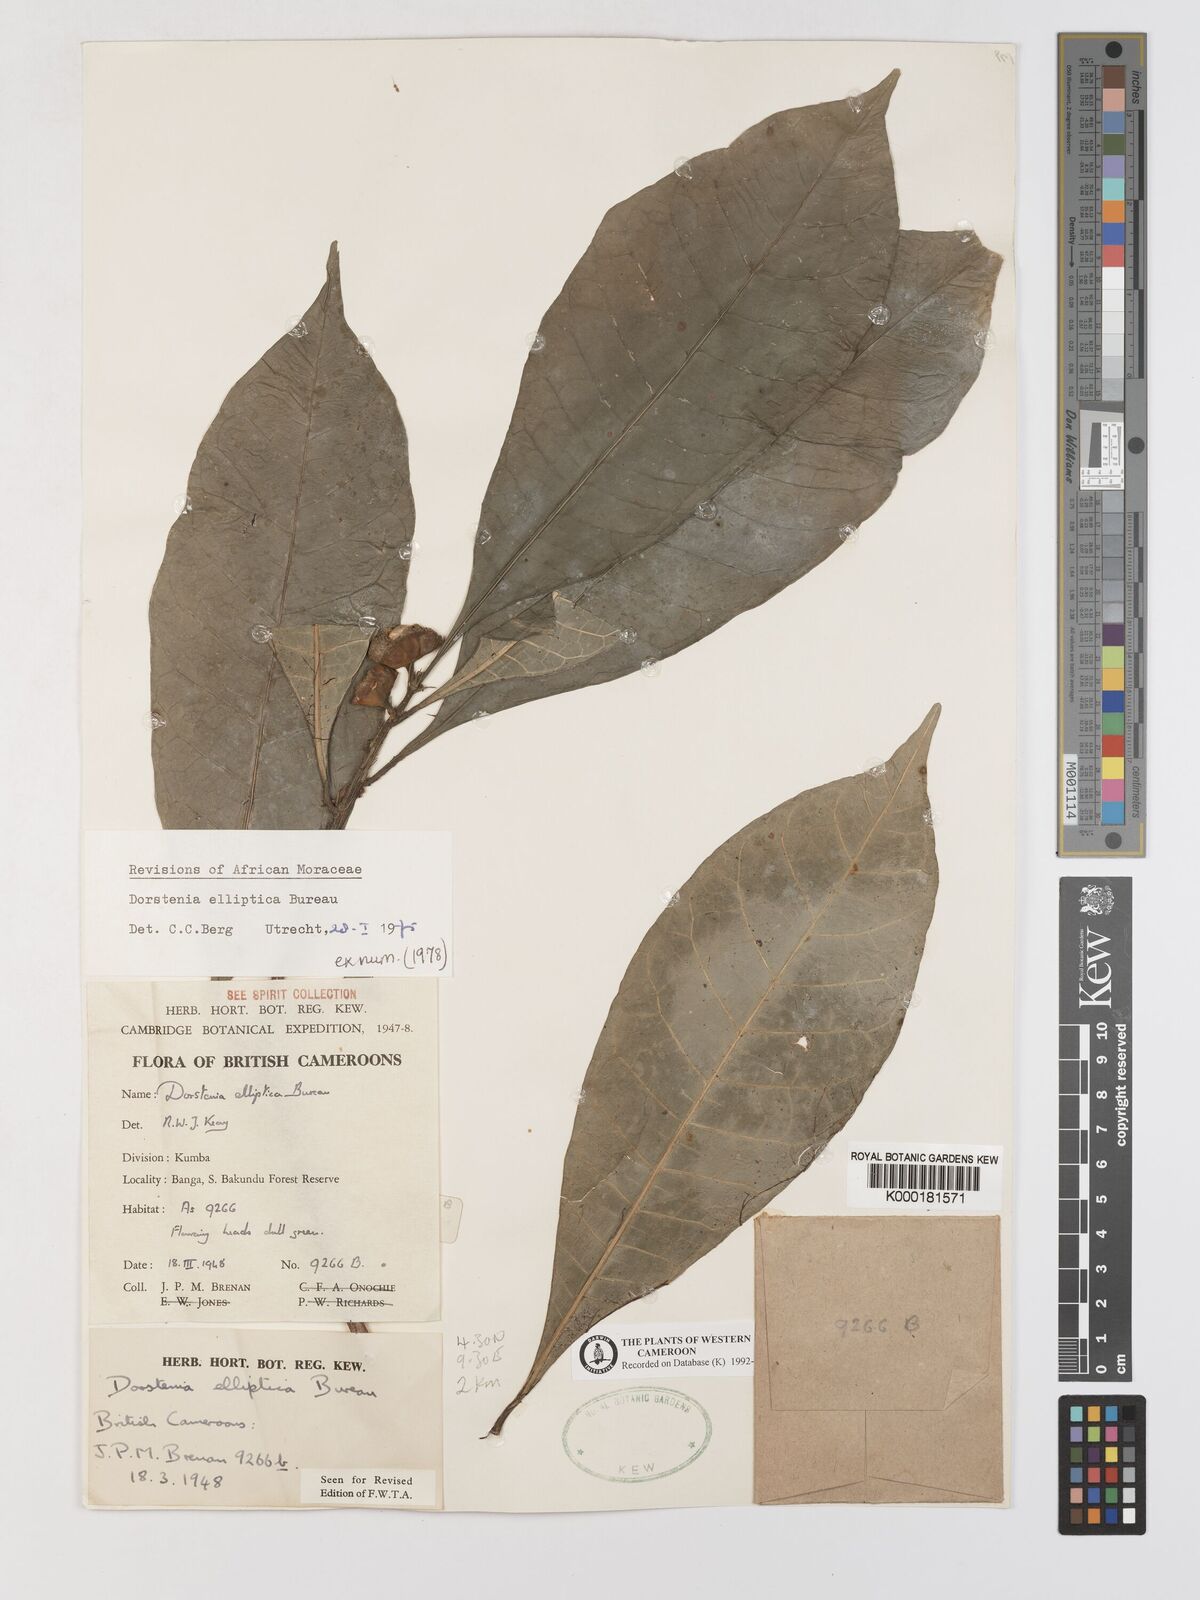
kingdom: Plantae
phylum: Tracheophyta
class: Magnoliopsida
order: Rosales
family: Moraceae
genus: Dorstenia
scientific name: Dorstenia elliptica
